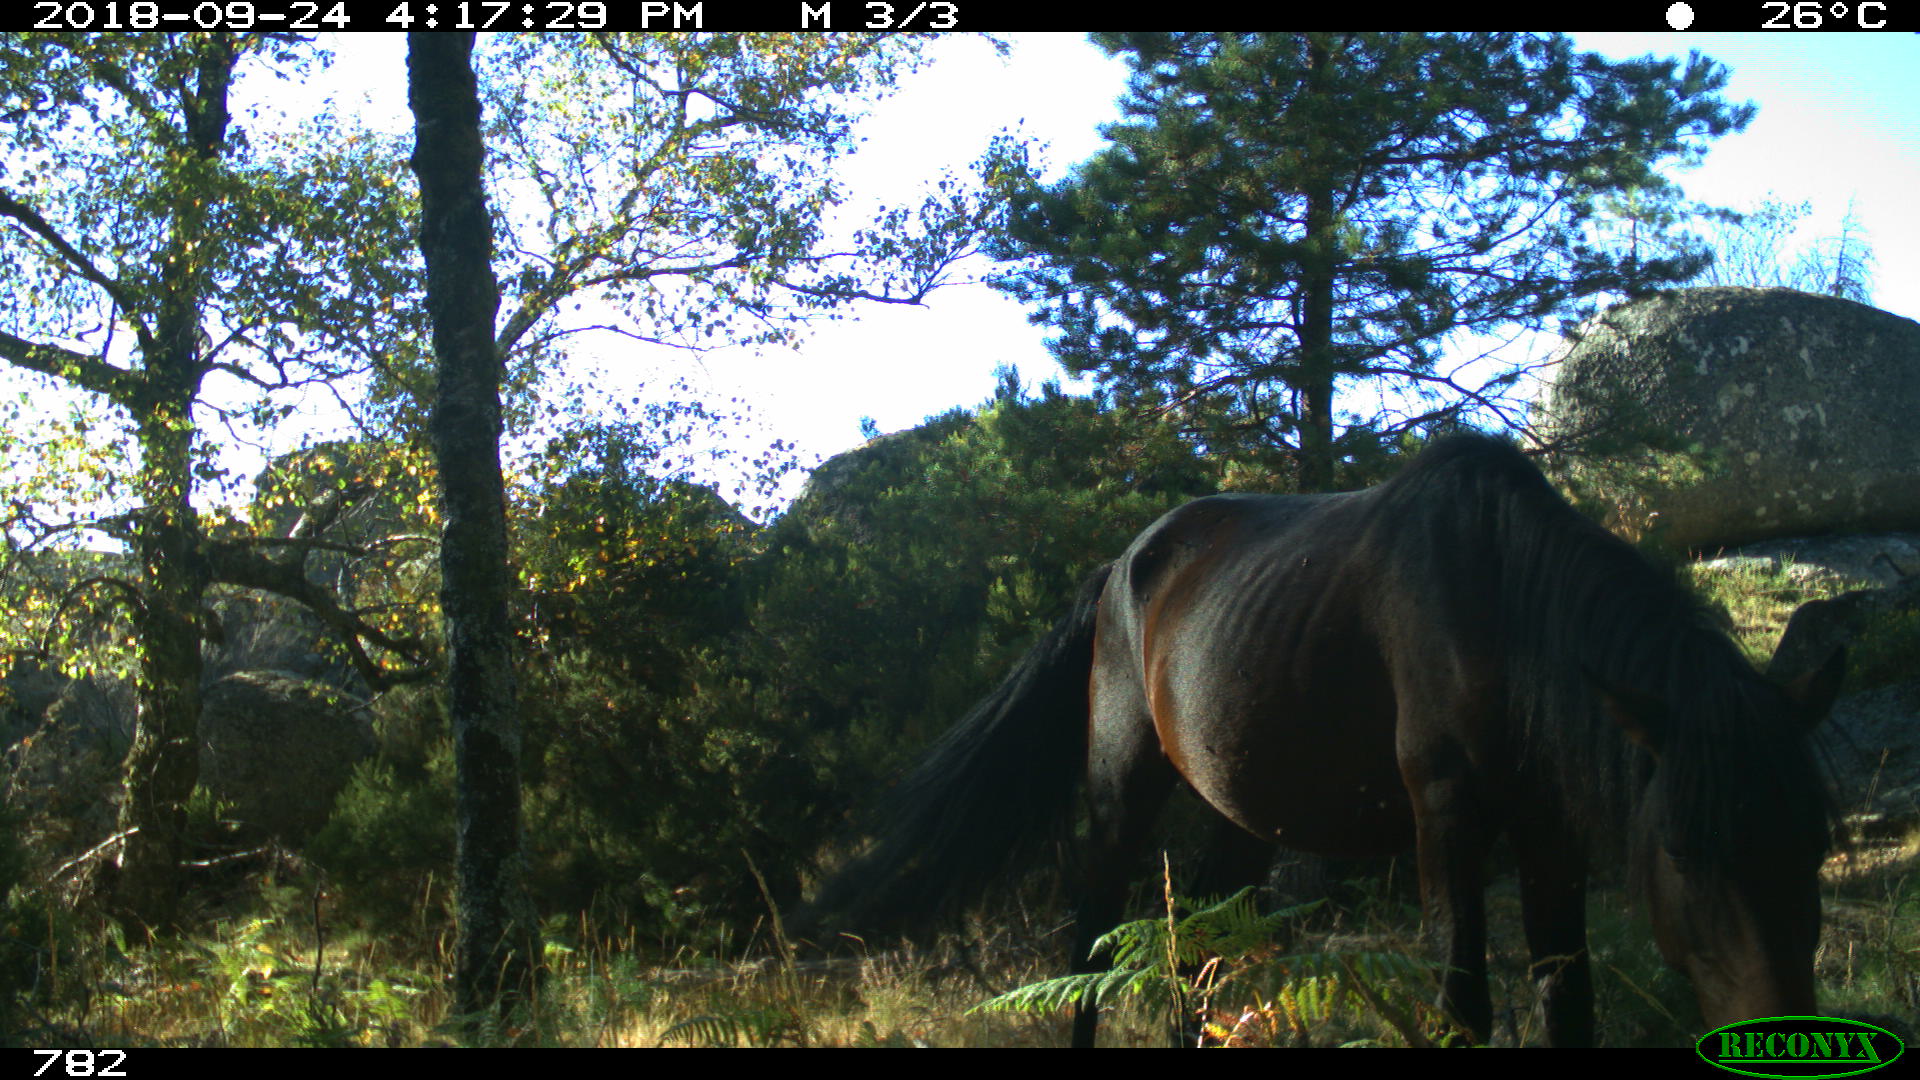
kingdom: Animalia
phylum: Chordata
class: Mammalia
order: Perissodactyla
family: Equidae
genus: Equus
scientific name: Equus caballus
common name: Horse
